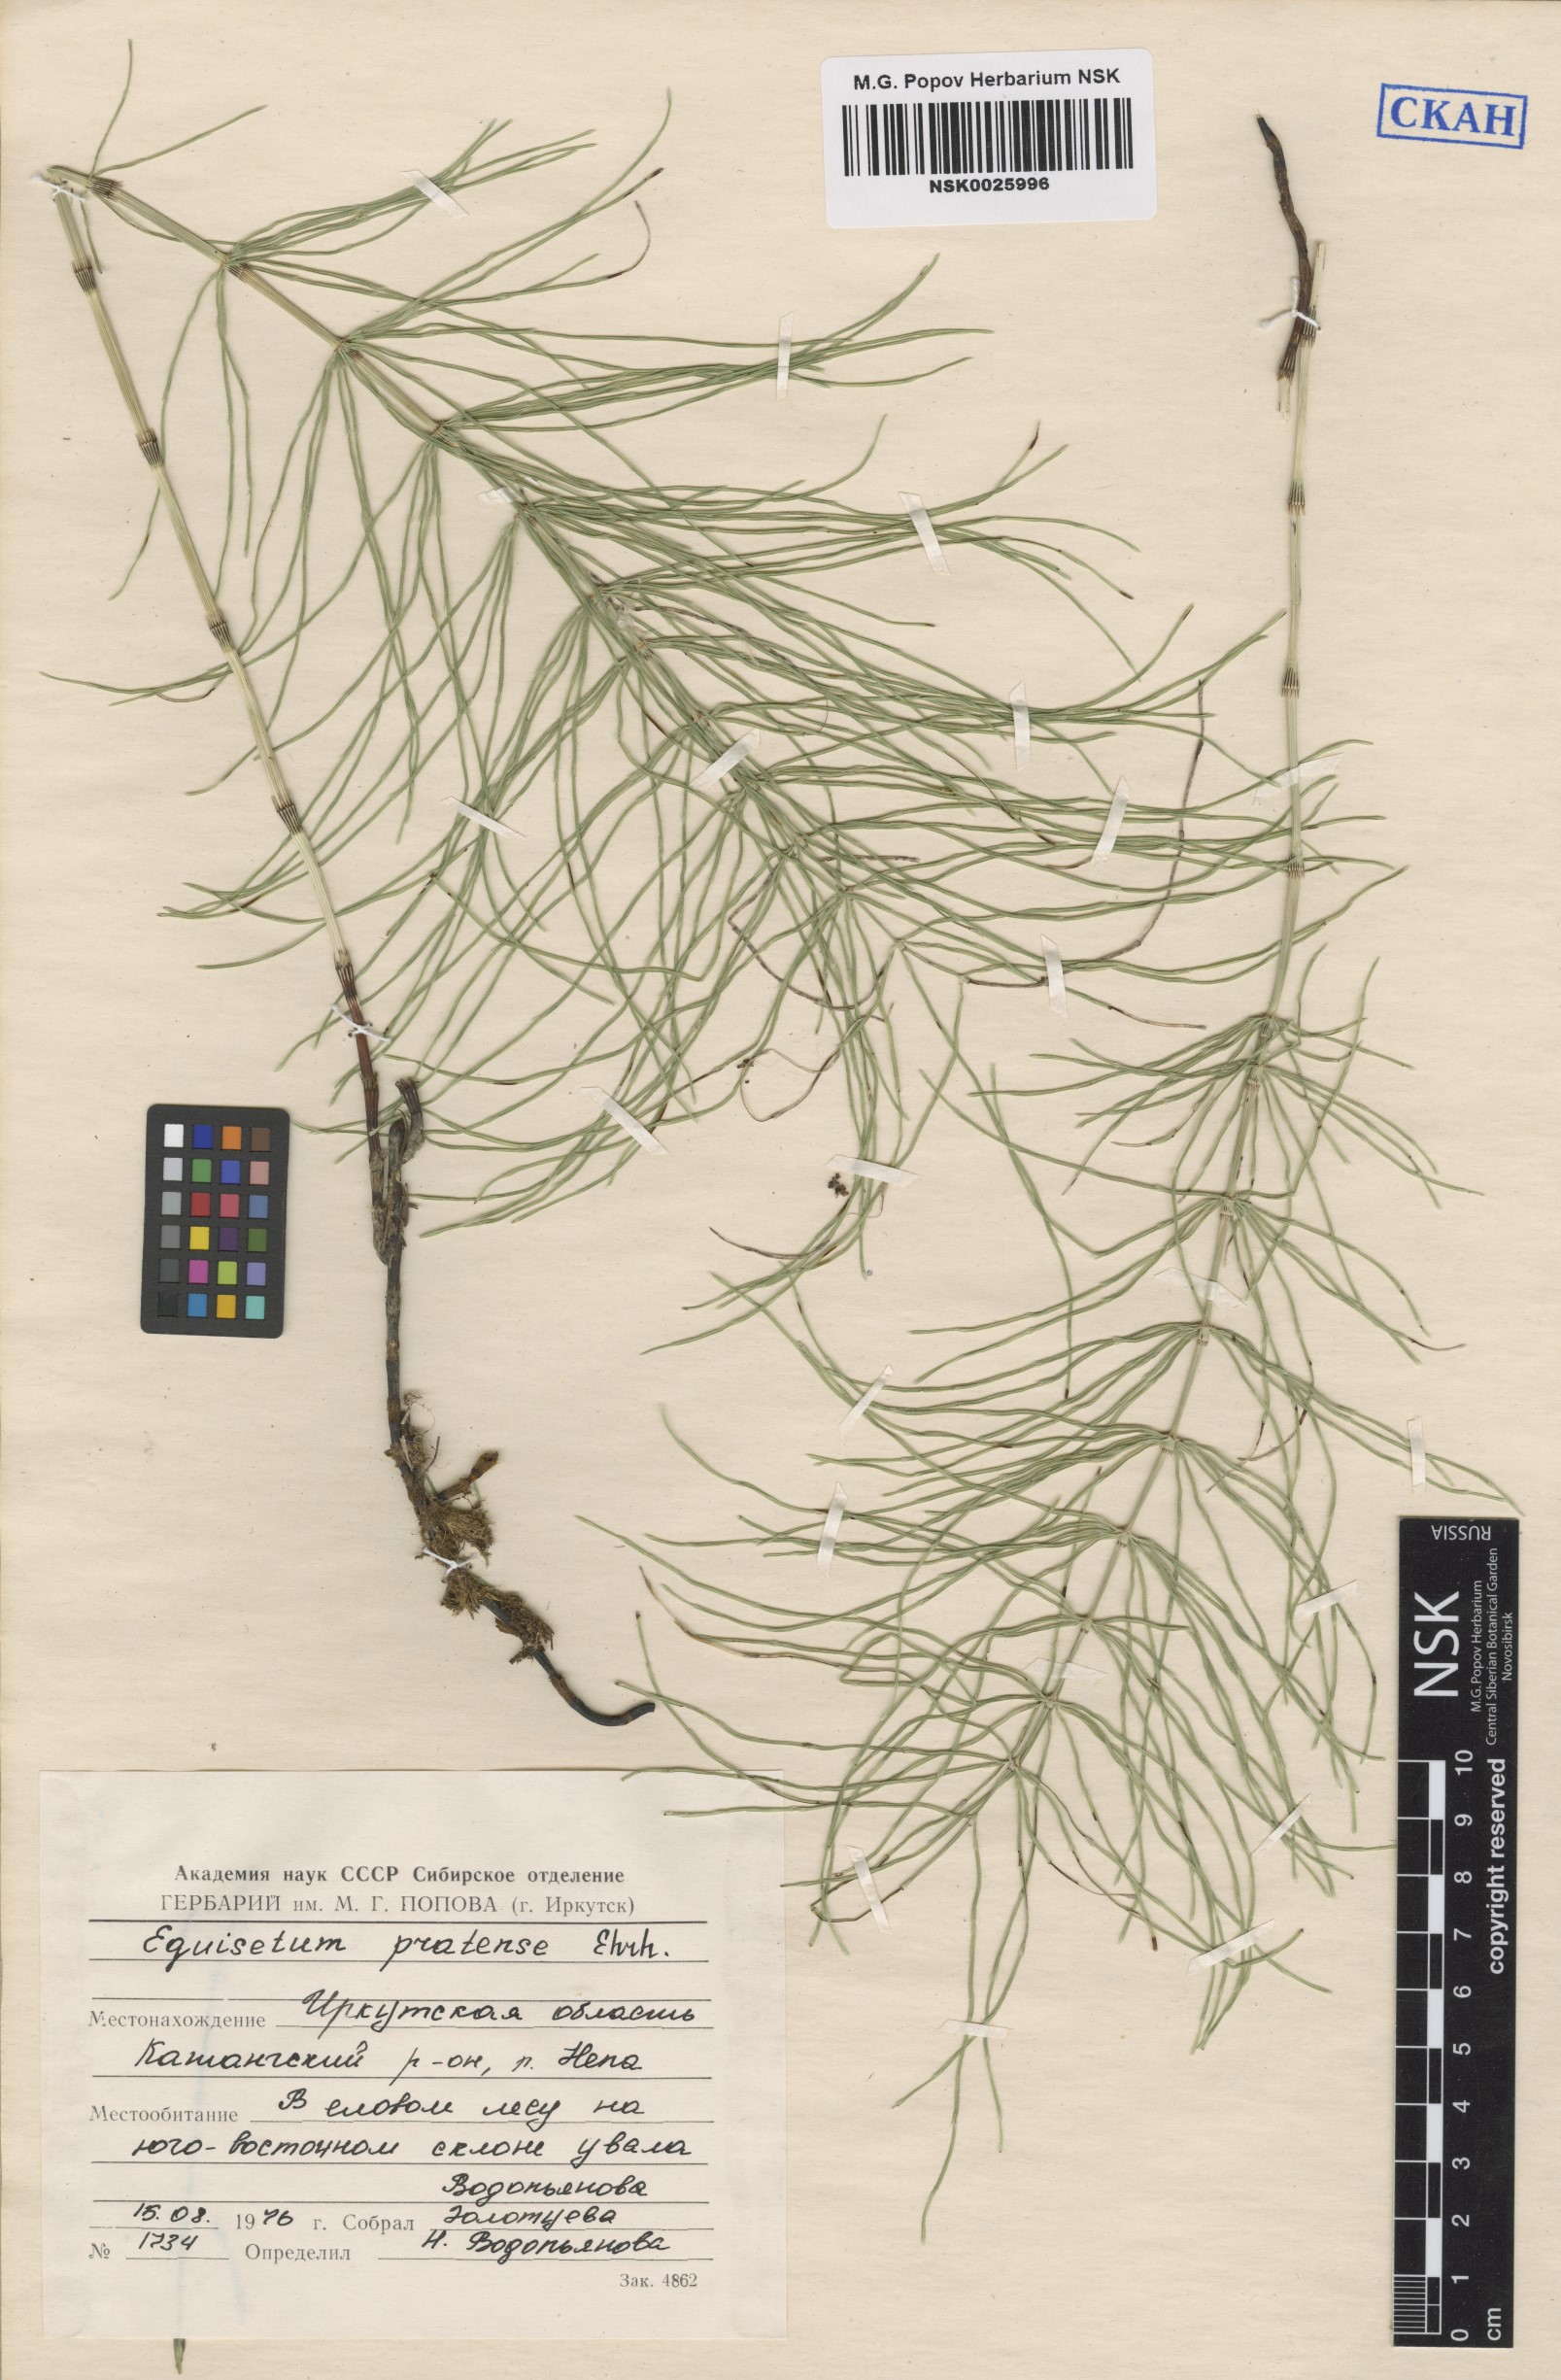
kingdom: Plantae
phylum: Tracheophyta
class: Polypodiopsida
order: Equisetales
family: Equisetaceae
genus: Equisetum
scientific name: Equisetum pratense
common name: Meadow horsetail
